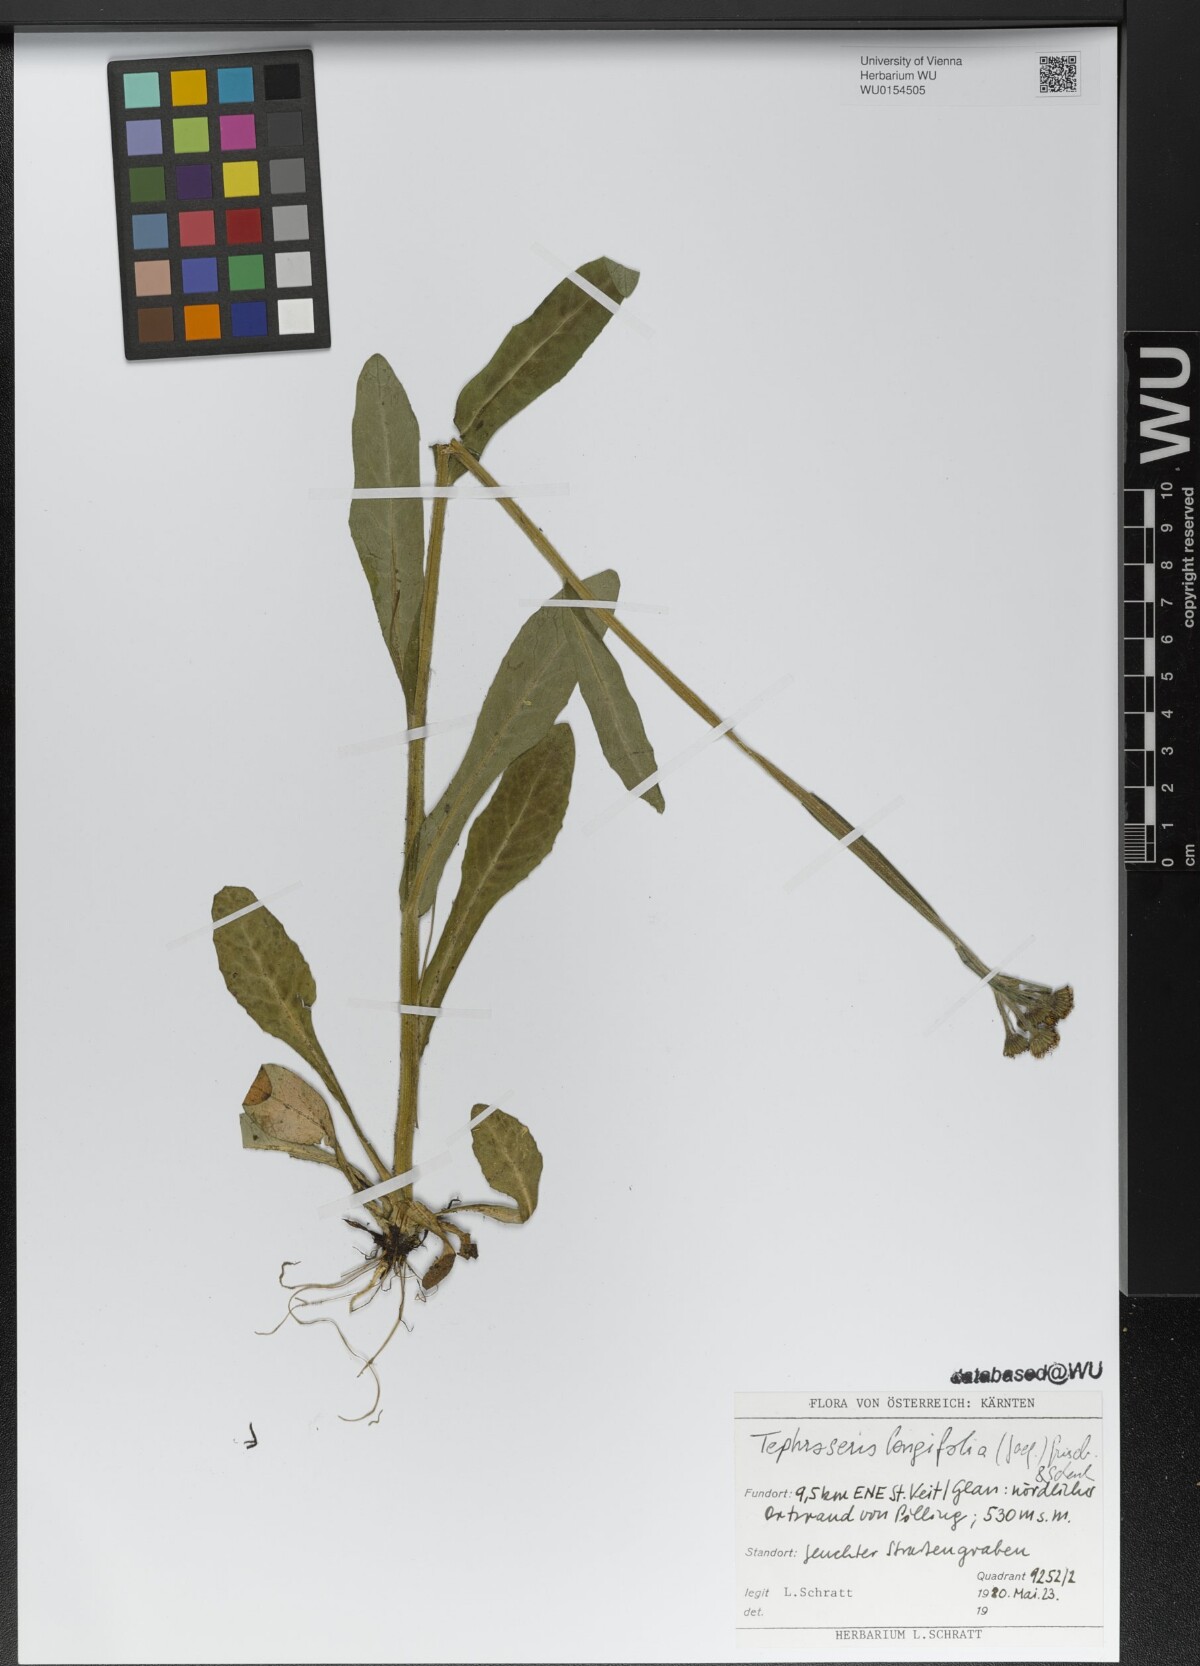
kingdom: Plantae
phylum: Tracheophyta
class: Magnoliopsida
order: Asterales
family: Asteraceae
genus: Tephroseris
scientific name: Tephroseris longifolia
